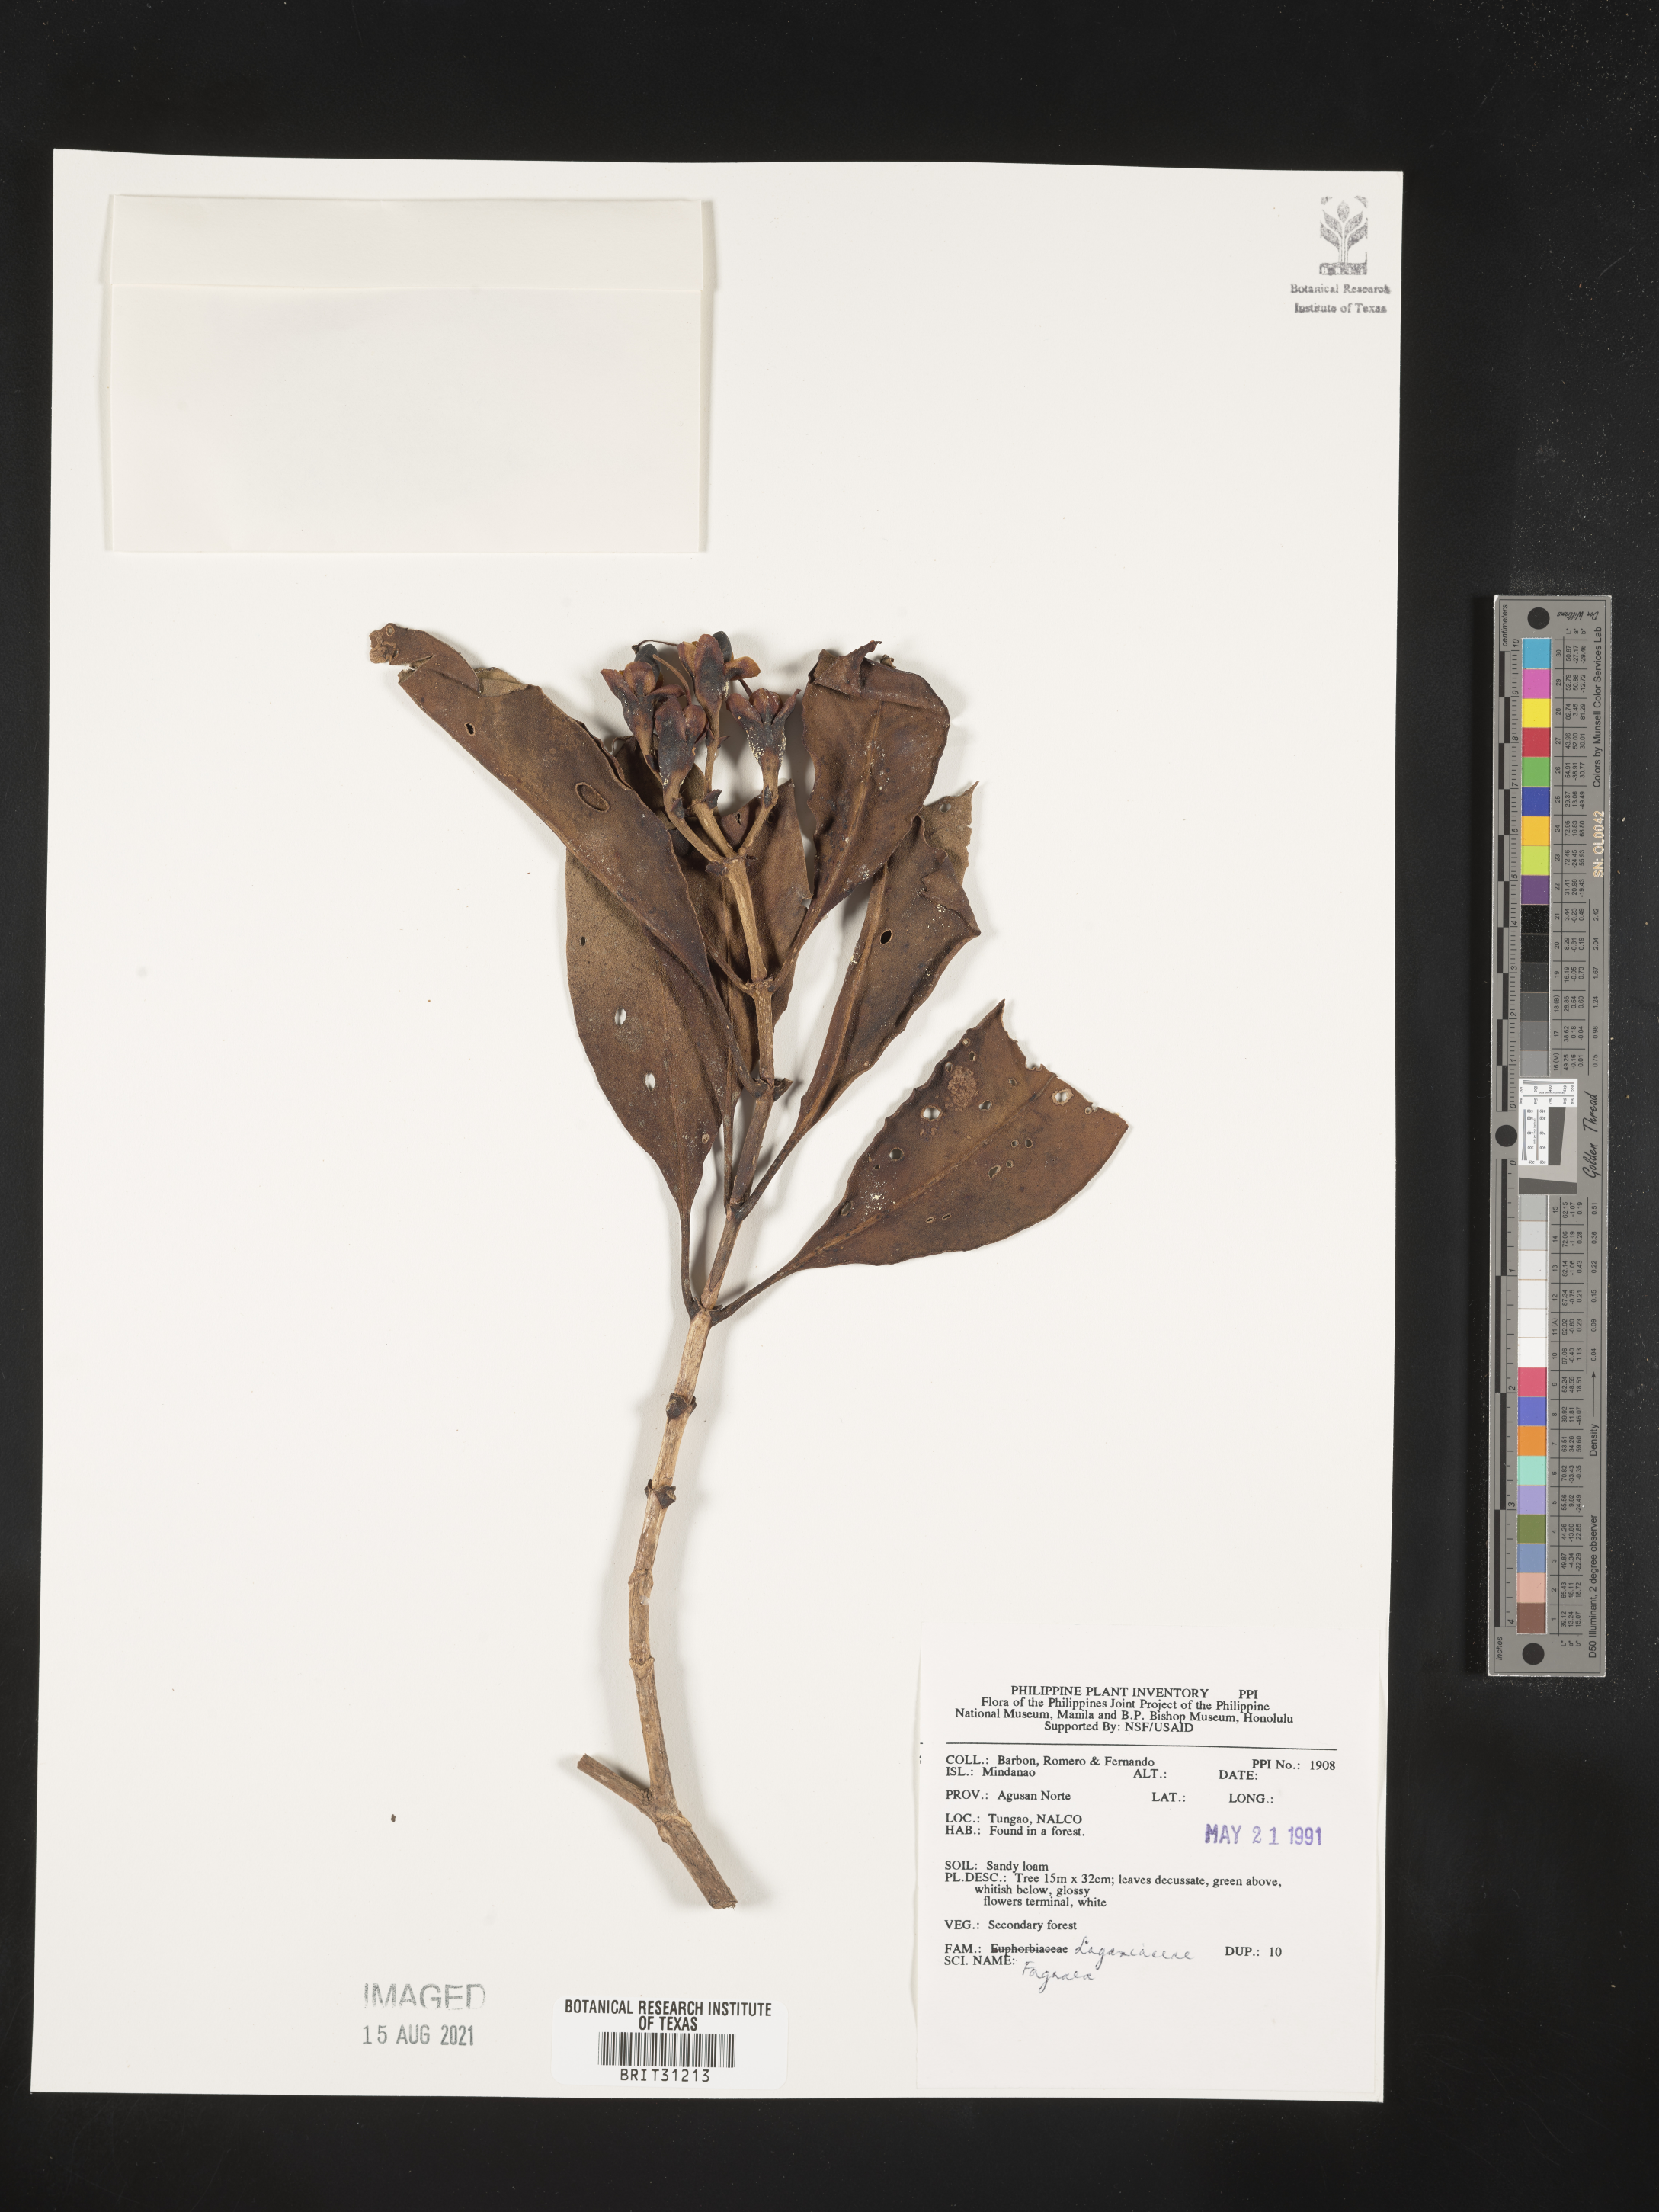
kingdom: Plantae
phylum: Tracheophyta
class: Magnoliopsida
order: Gentianales
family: Gentianaceae
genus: Fagraea
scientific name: Fagraea
